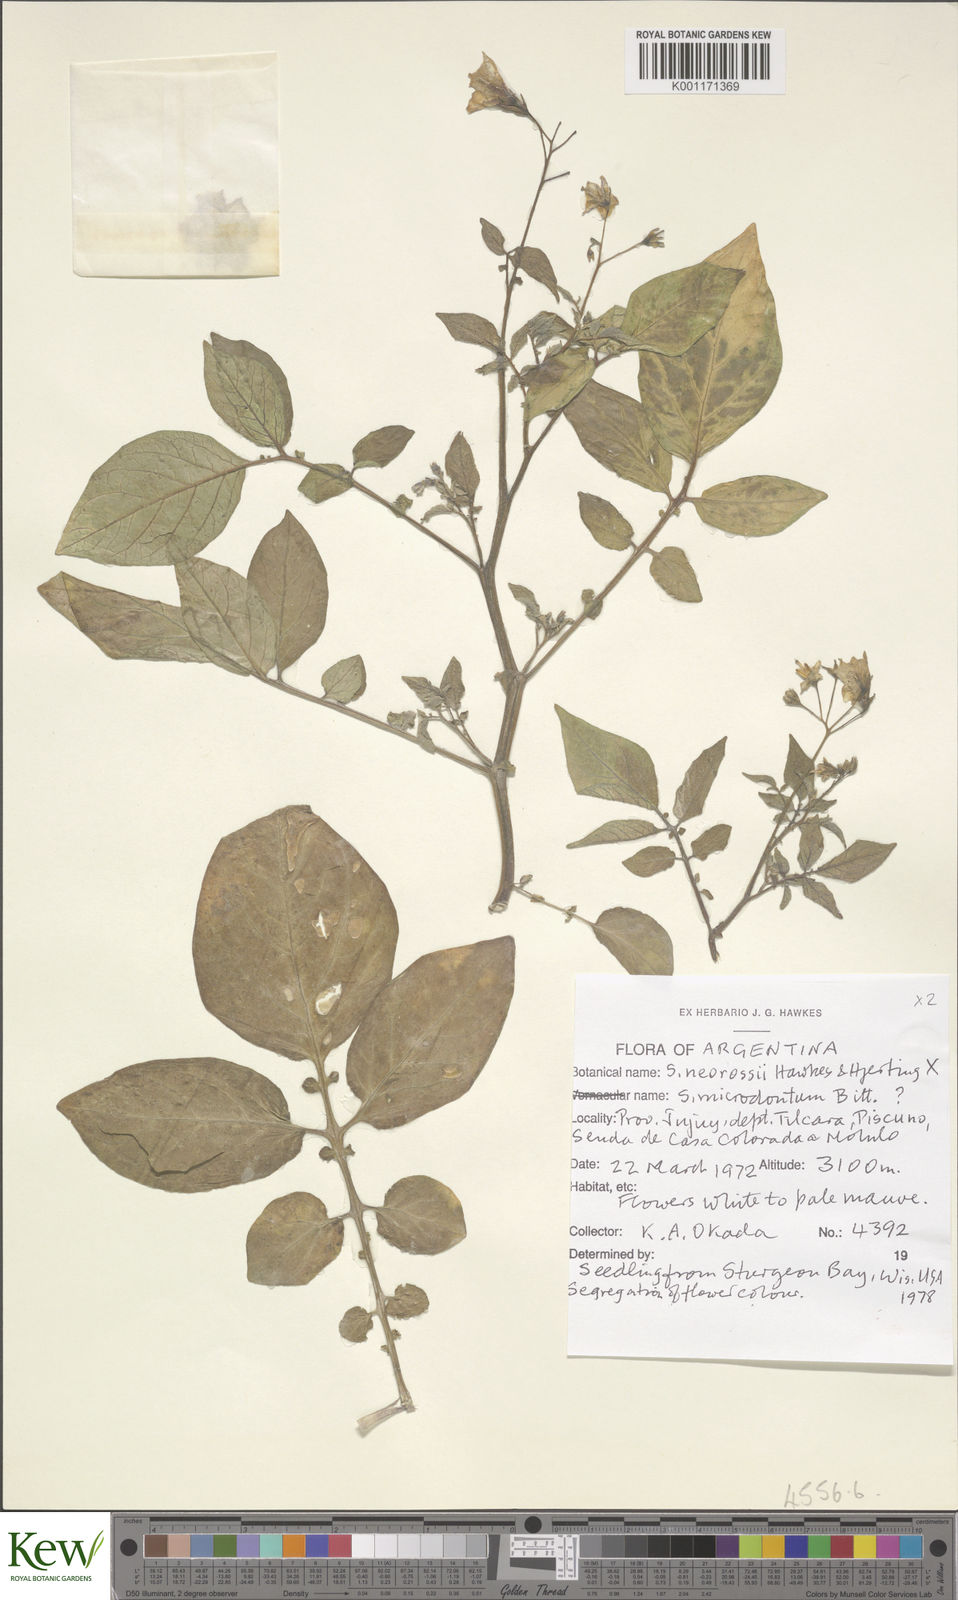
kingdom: Plantae
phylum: Tracheophyta
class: Magnoliopsida
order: Solanales
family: Solanaceae
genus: Solanum
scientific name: Solanum neorossii
